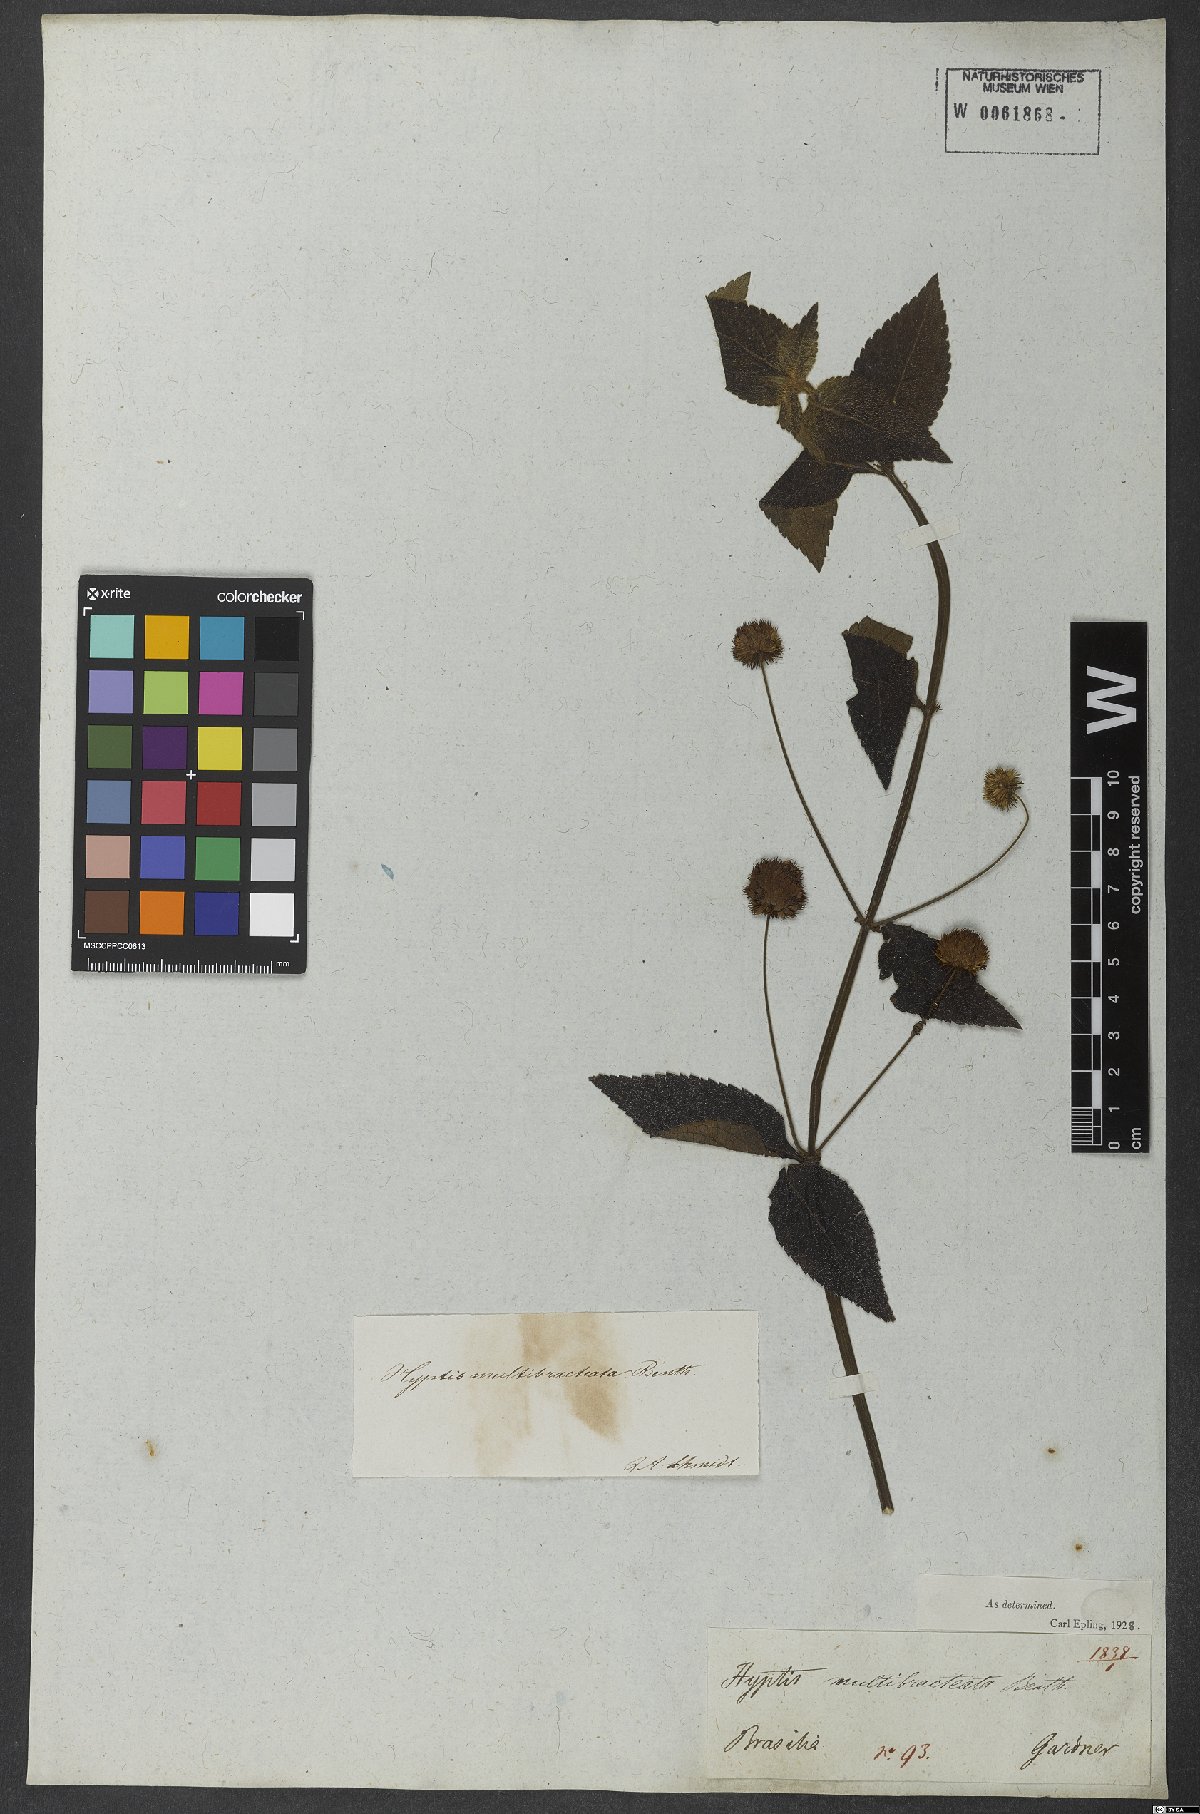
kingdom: Plantae
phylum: Tracheophyta
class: Magnoliopsida
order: Lamiales
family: Lamiaceae
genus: Hyptis
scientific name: Hyptis multibracteata
